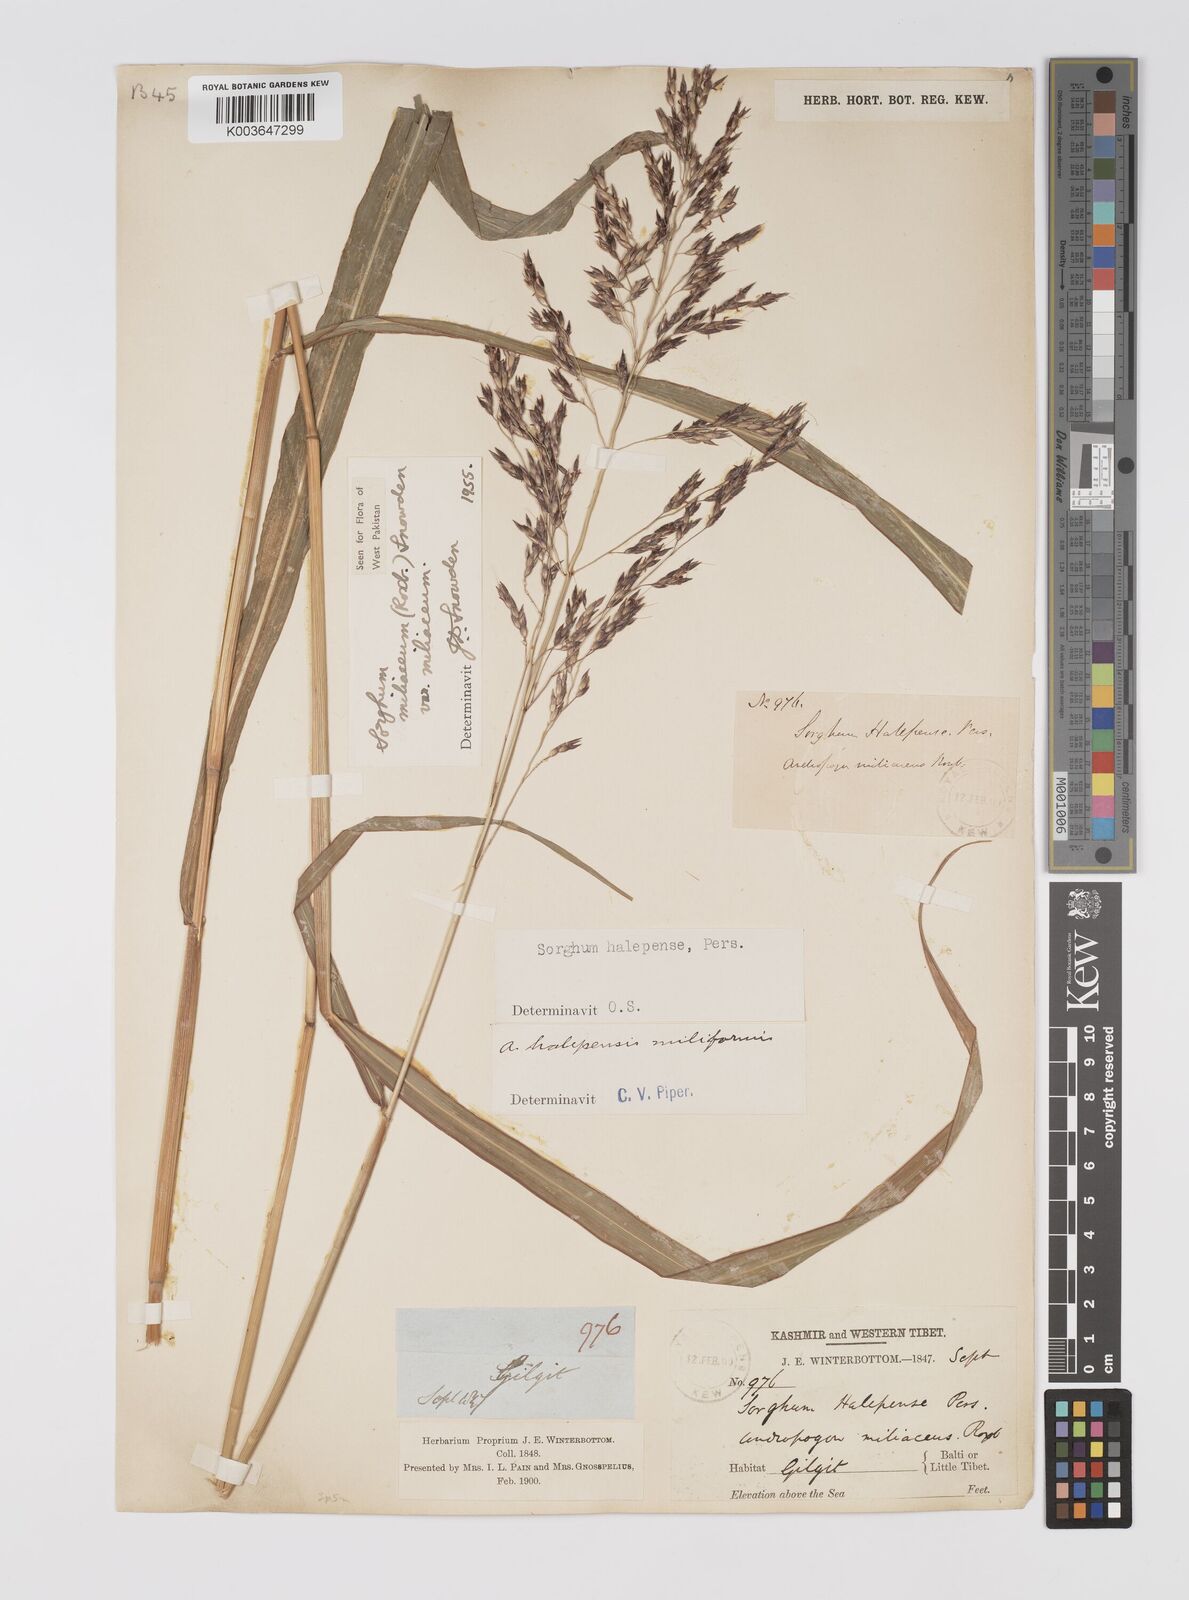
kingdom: Plantae
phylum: Tracheophyta
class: Liliopsida
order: Poales
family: Poaceae
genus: Sorghum
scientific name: Sorghum halepense
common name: Johnson-grass
